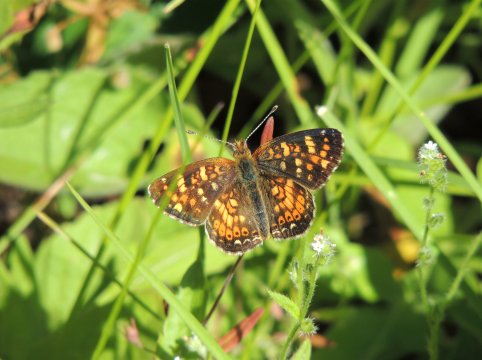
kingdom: Animalia
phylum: Arthropoda
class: Insecta
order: Lepidoptera
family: Nymphalidae
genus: Phyciodes
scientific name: Phyciodes tharos
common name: Field Crescent
